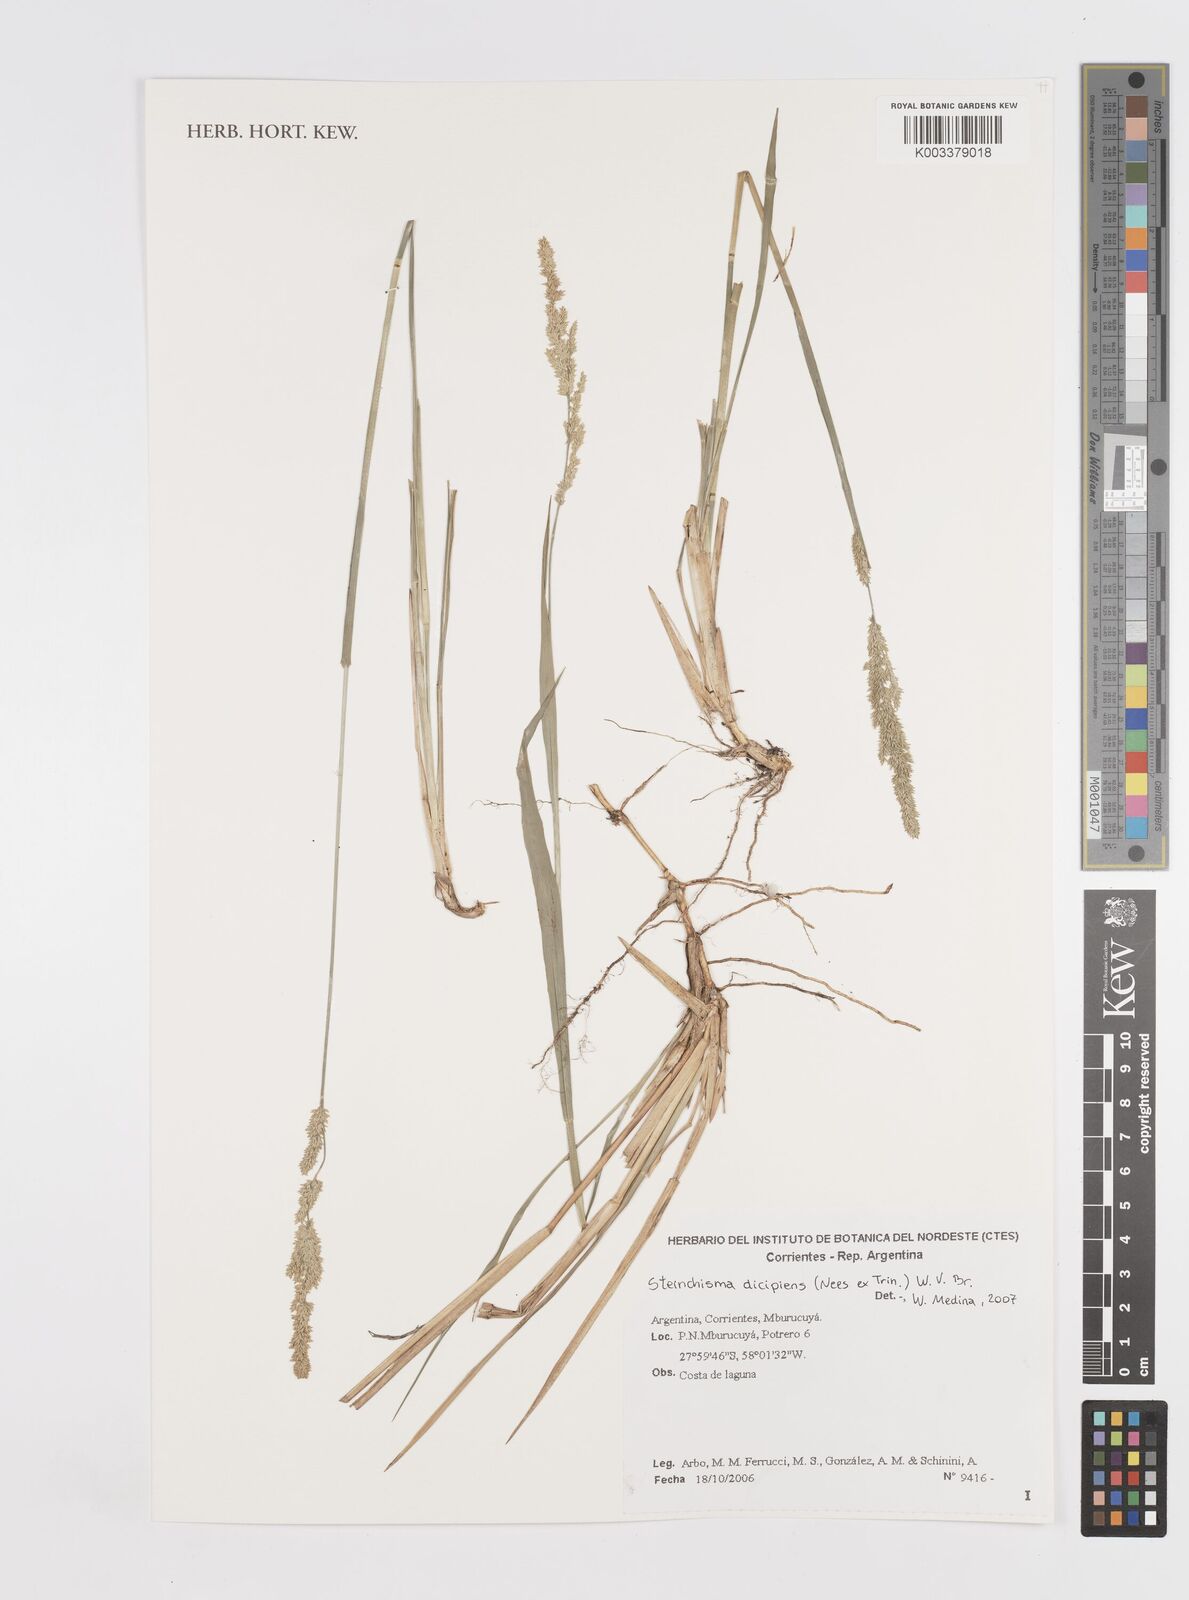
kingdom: Plantae
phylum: Tracheophyta
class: Liliopsida
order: Poales
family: Poaceae
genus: Steinchisma
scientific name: Steinchisma decipiens
